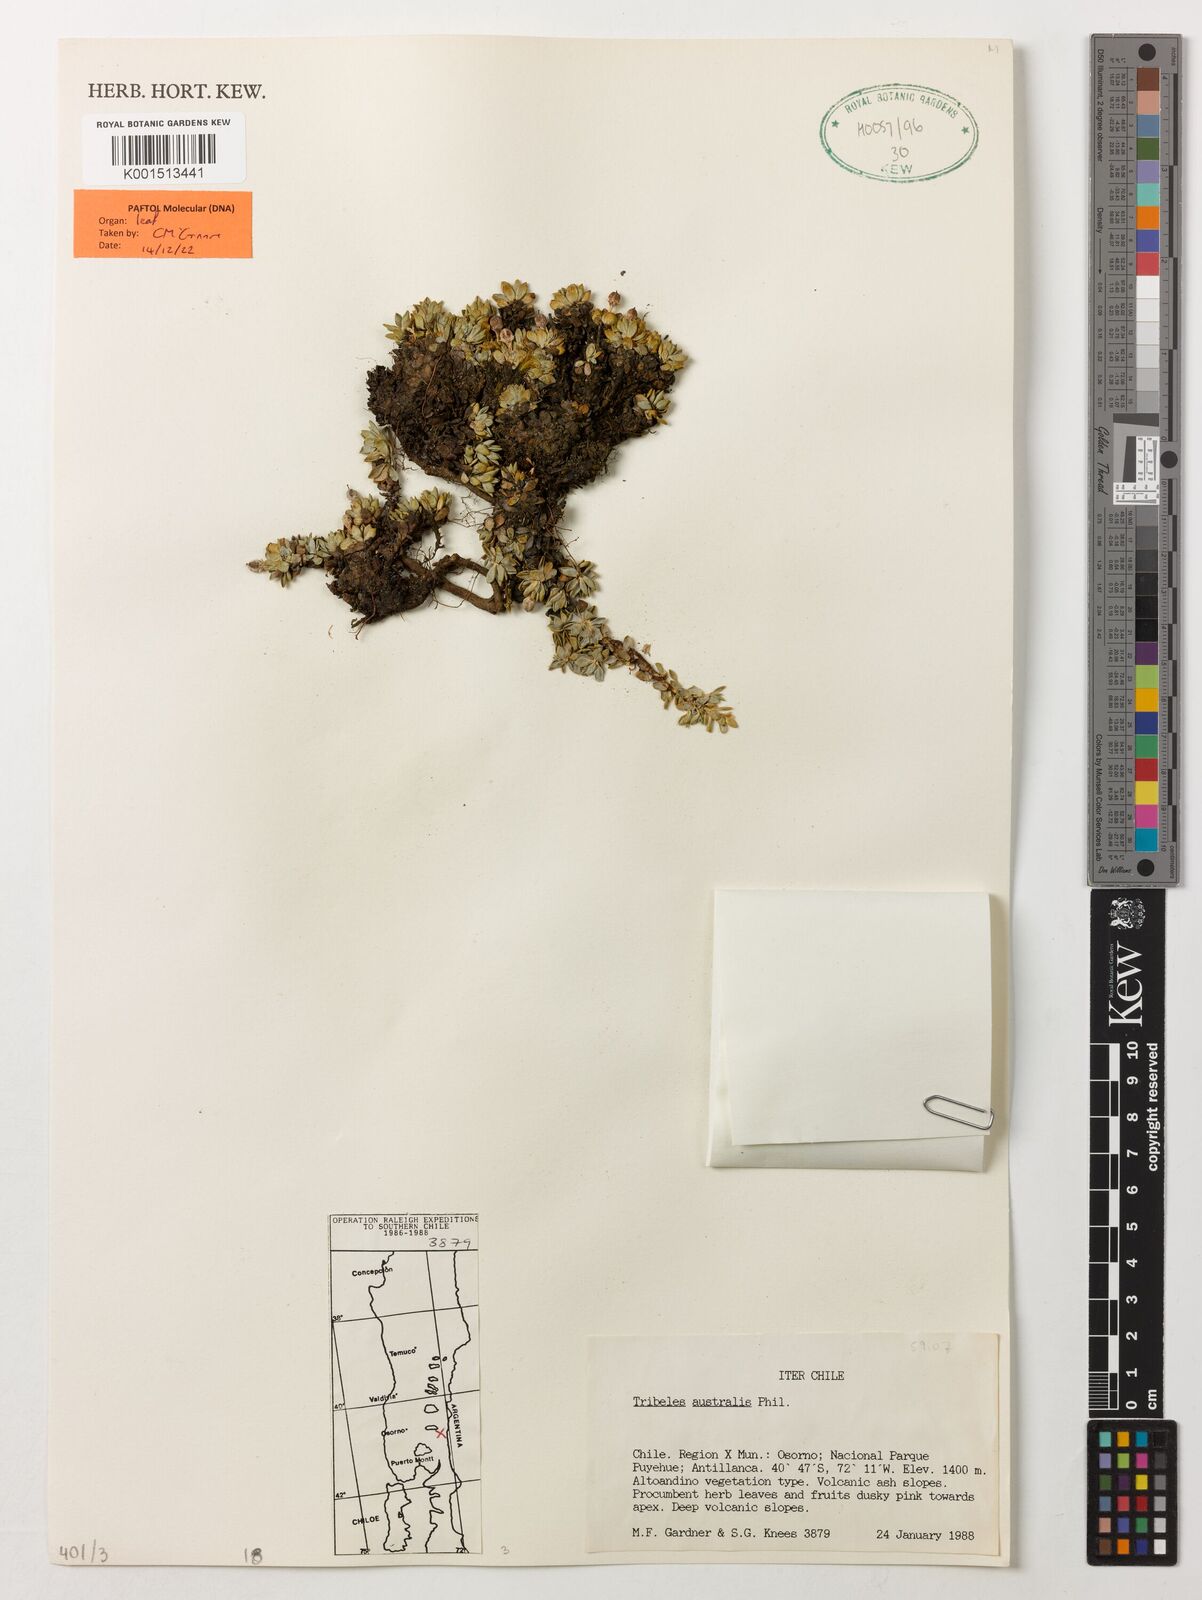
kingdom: Plantae
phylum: Tracheophyta
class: Magnoliopsida
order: Escalloniales
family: Escalloniaceae
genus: Tribeles
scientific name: Tribeles australis
